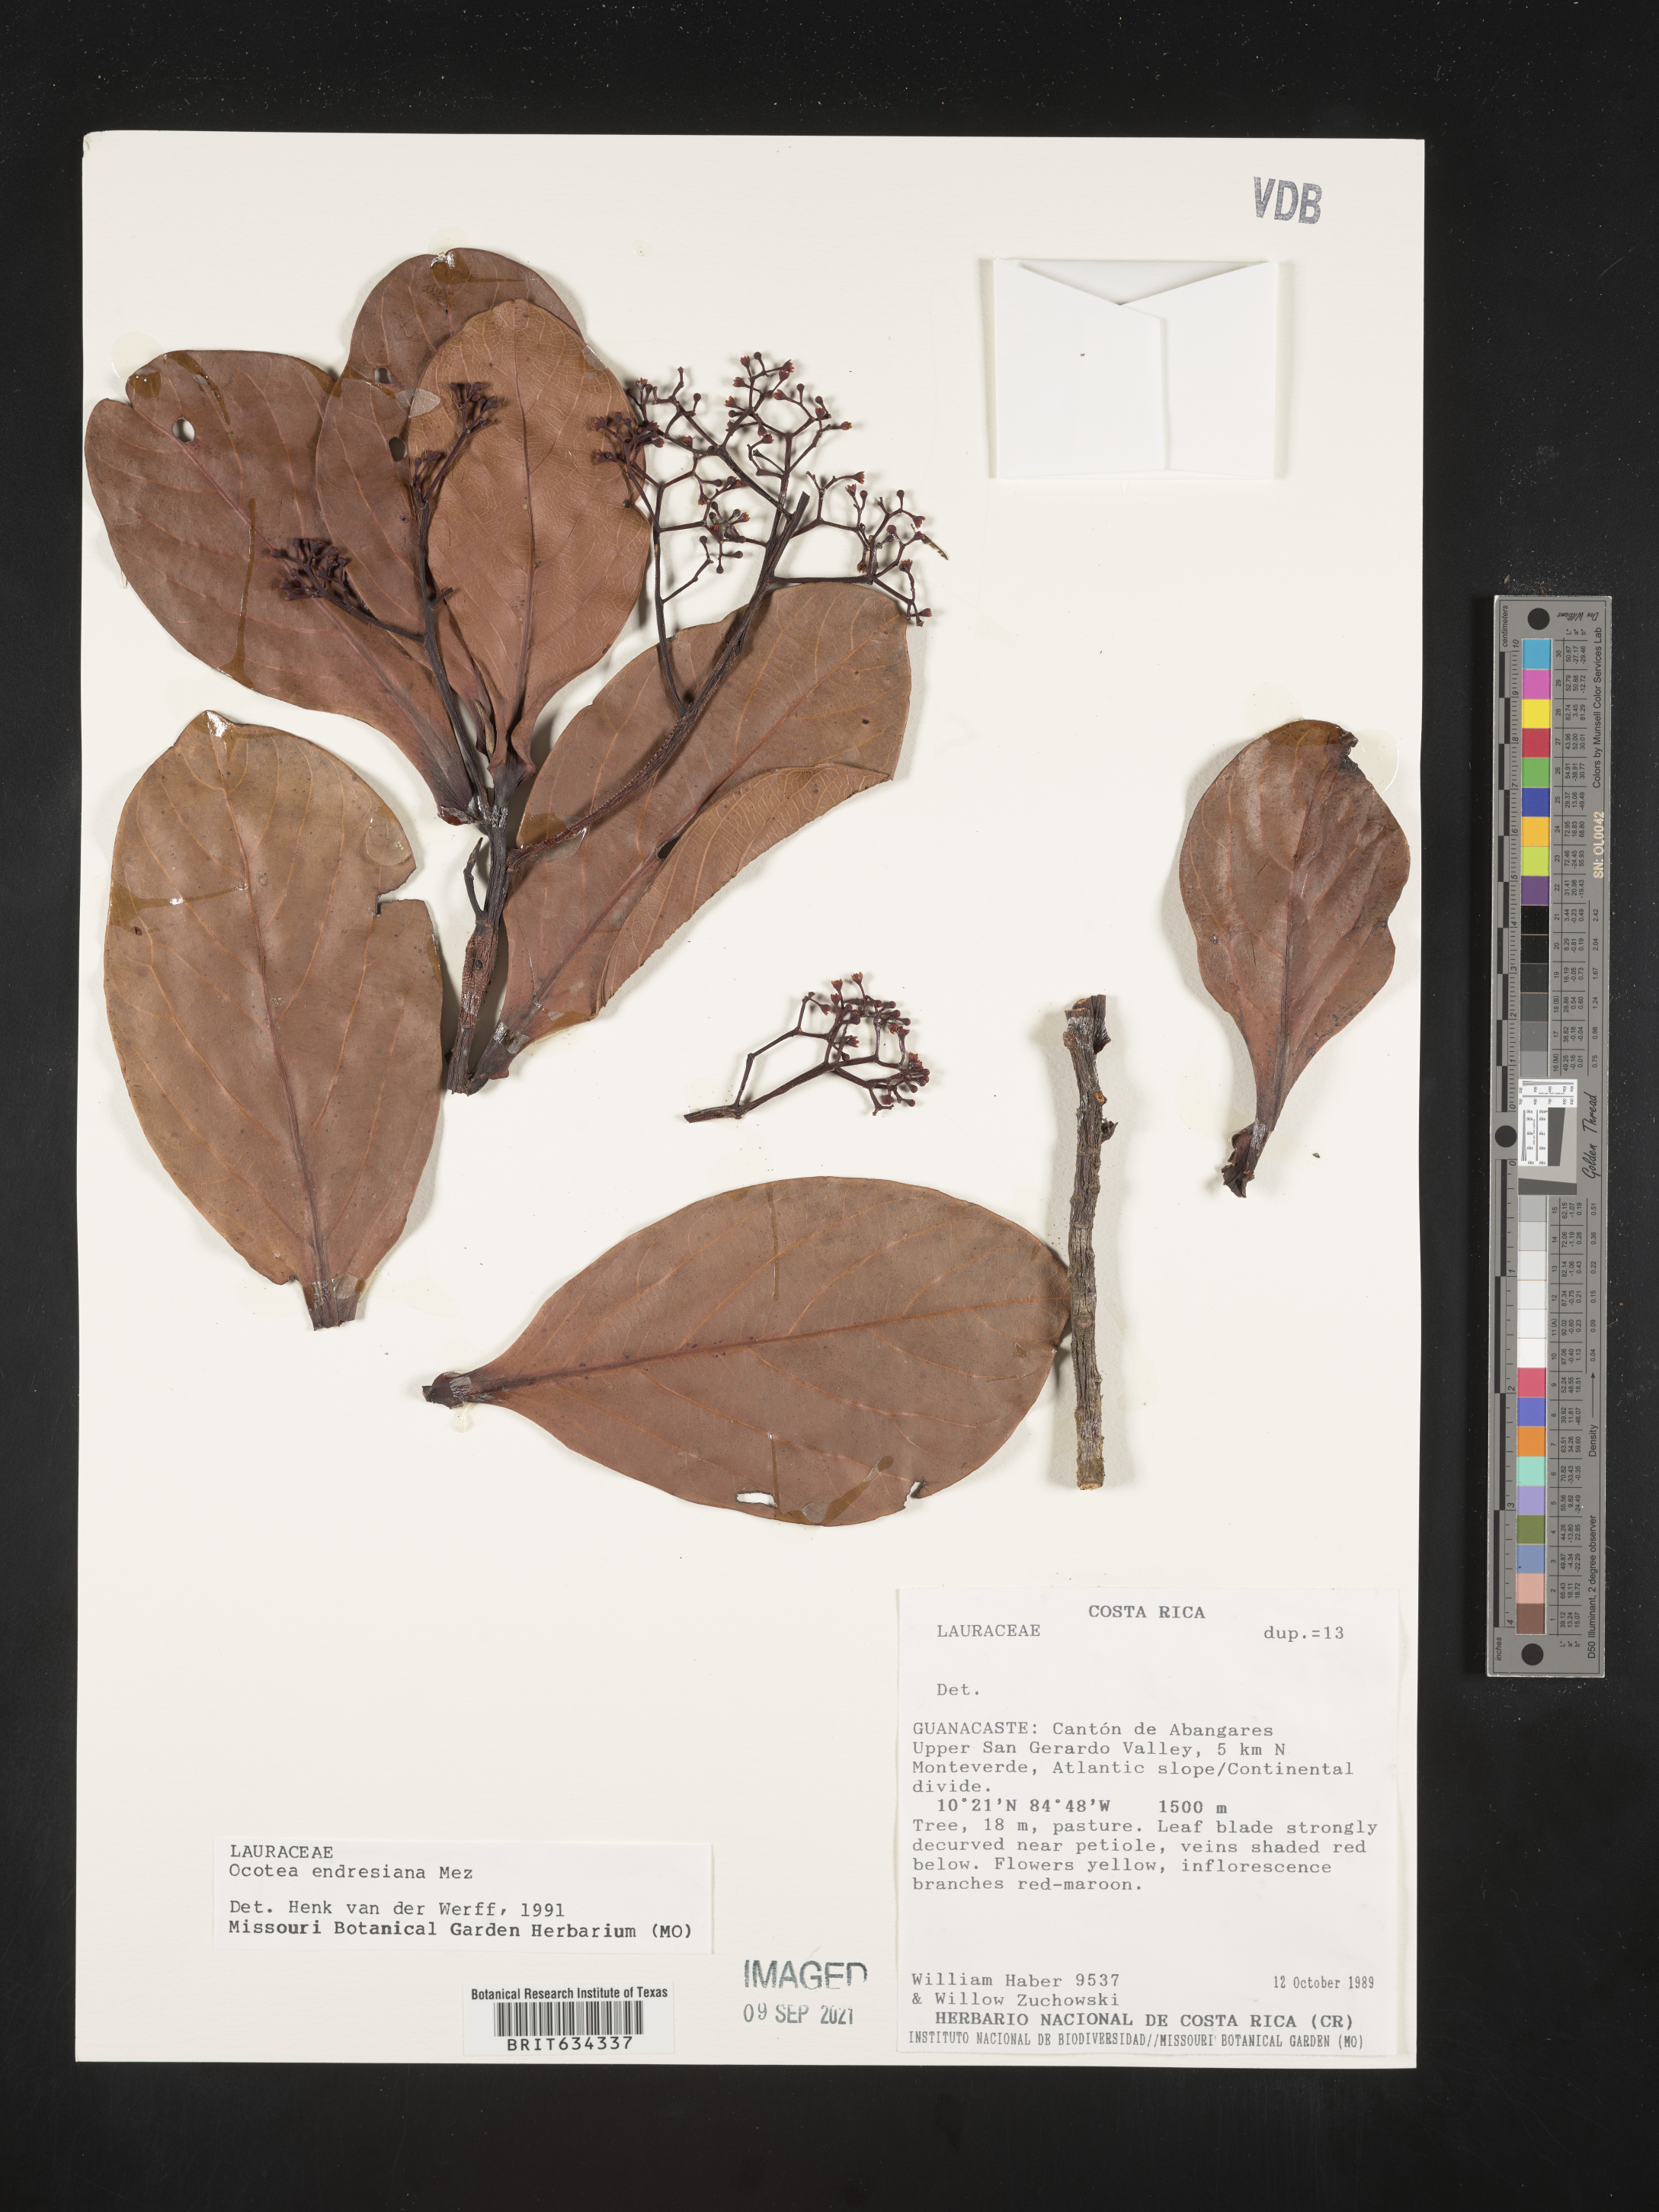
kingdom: Plantae
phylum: Tracheophyta
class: Magnoliopsida
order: Laurales
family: Lauraceae
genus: Ocotea
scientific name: Ocotea
